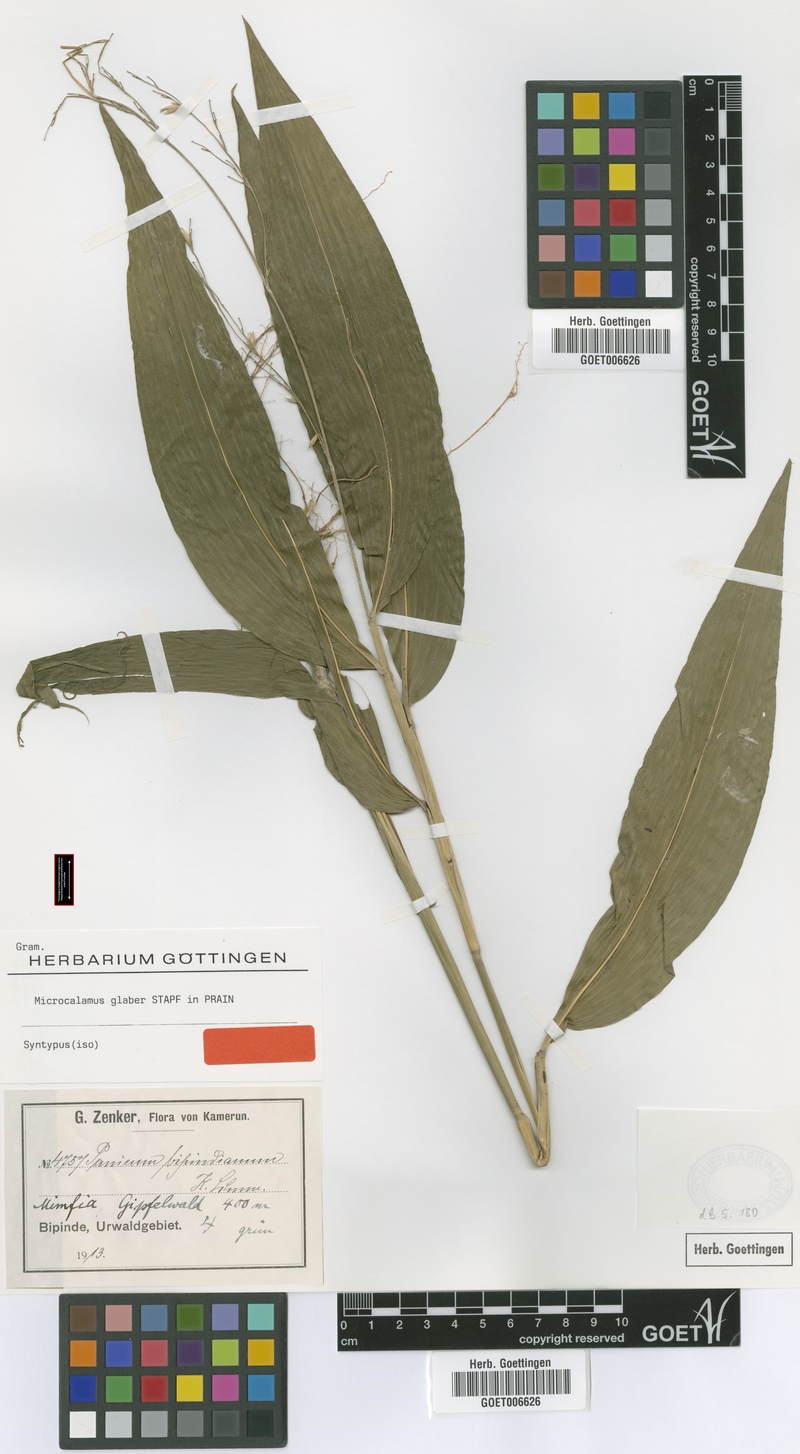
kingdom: Plantae
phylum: Tracheophyta
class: Liliopsida
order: Poales
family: Poaceae
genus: Microcalamus
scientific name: Microcalamus barbinodis
